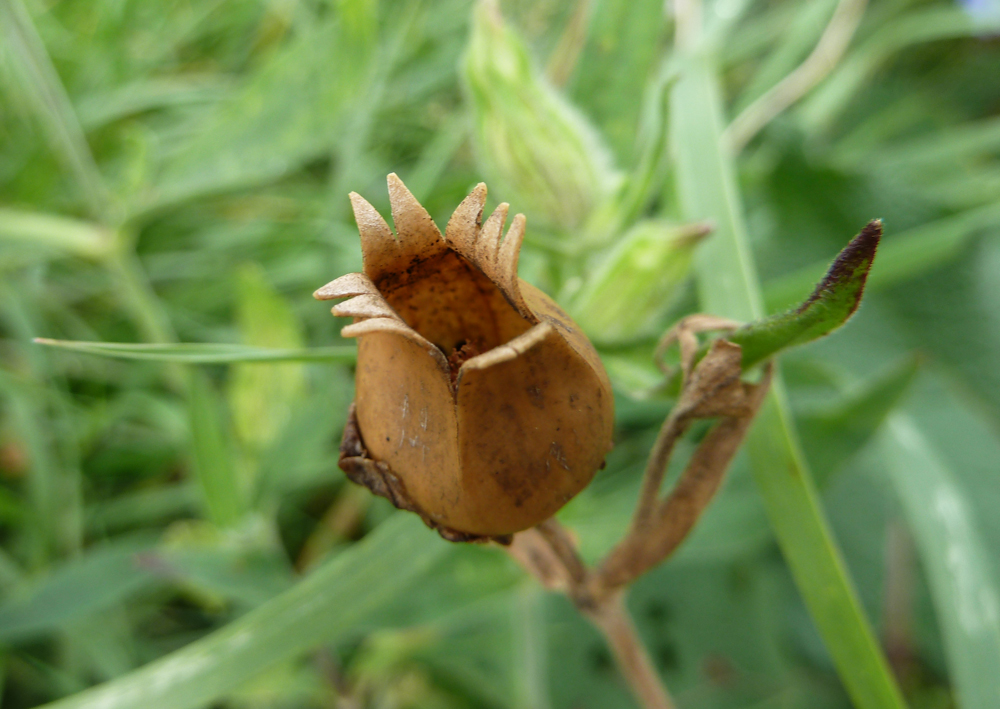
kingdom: Plantae
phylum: Tracheophyta
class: Magnoliopsida
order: Caryophyllales
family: Caryophyllaceae
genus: Silene
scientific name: Silene latifolia
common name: White campion
